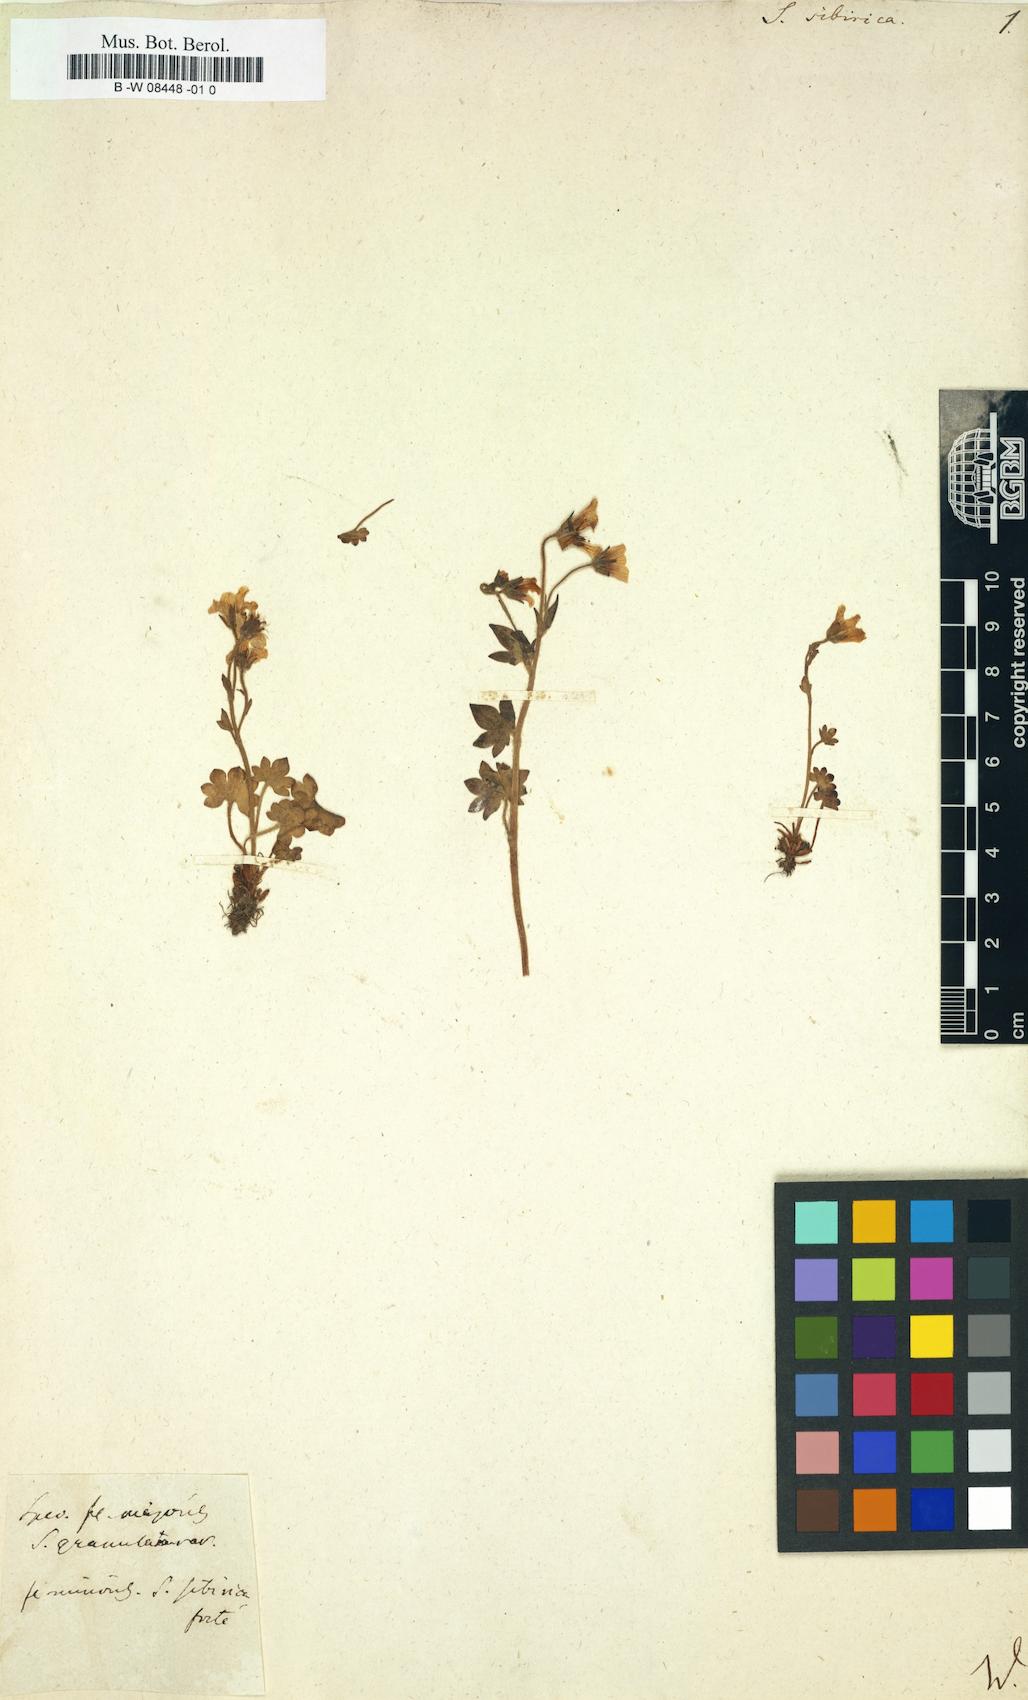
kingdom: Plantae
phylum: Tracheophyta
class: Magnoliopsida
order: Saxifragales
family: Saxifragaceae
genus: Saxifraga
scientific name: Saxifraga sibirica
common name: Siberian saxifrage
